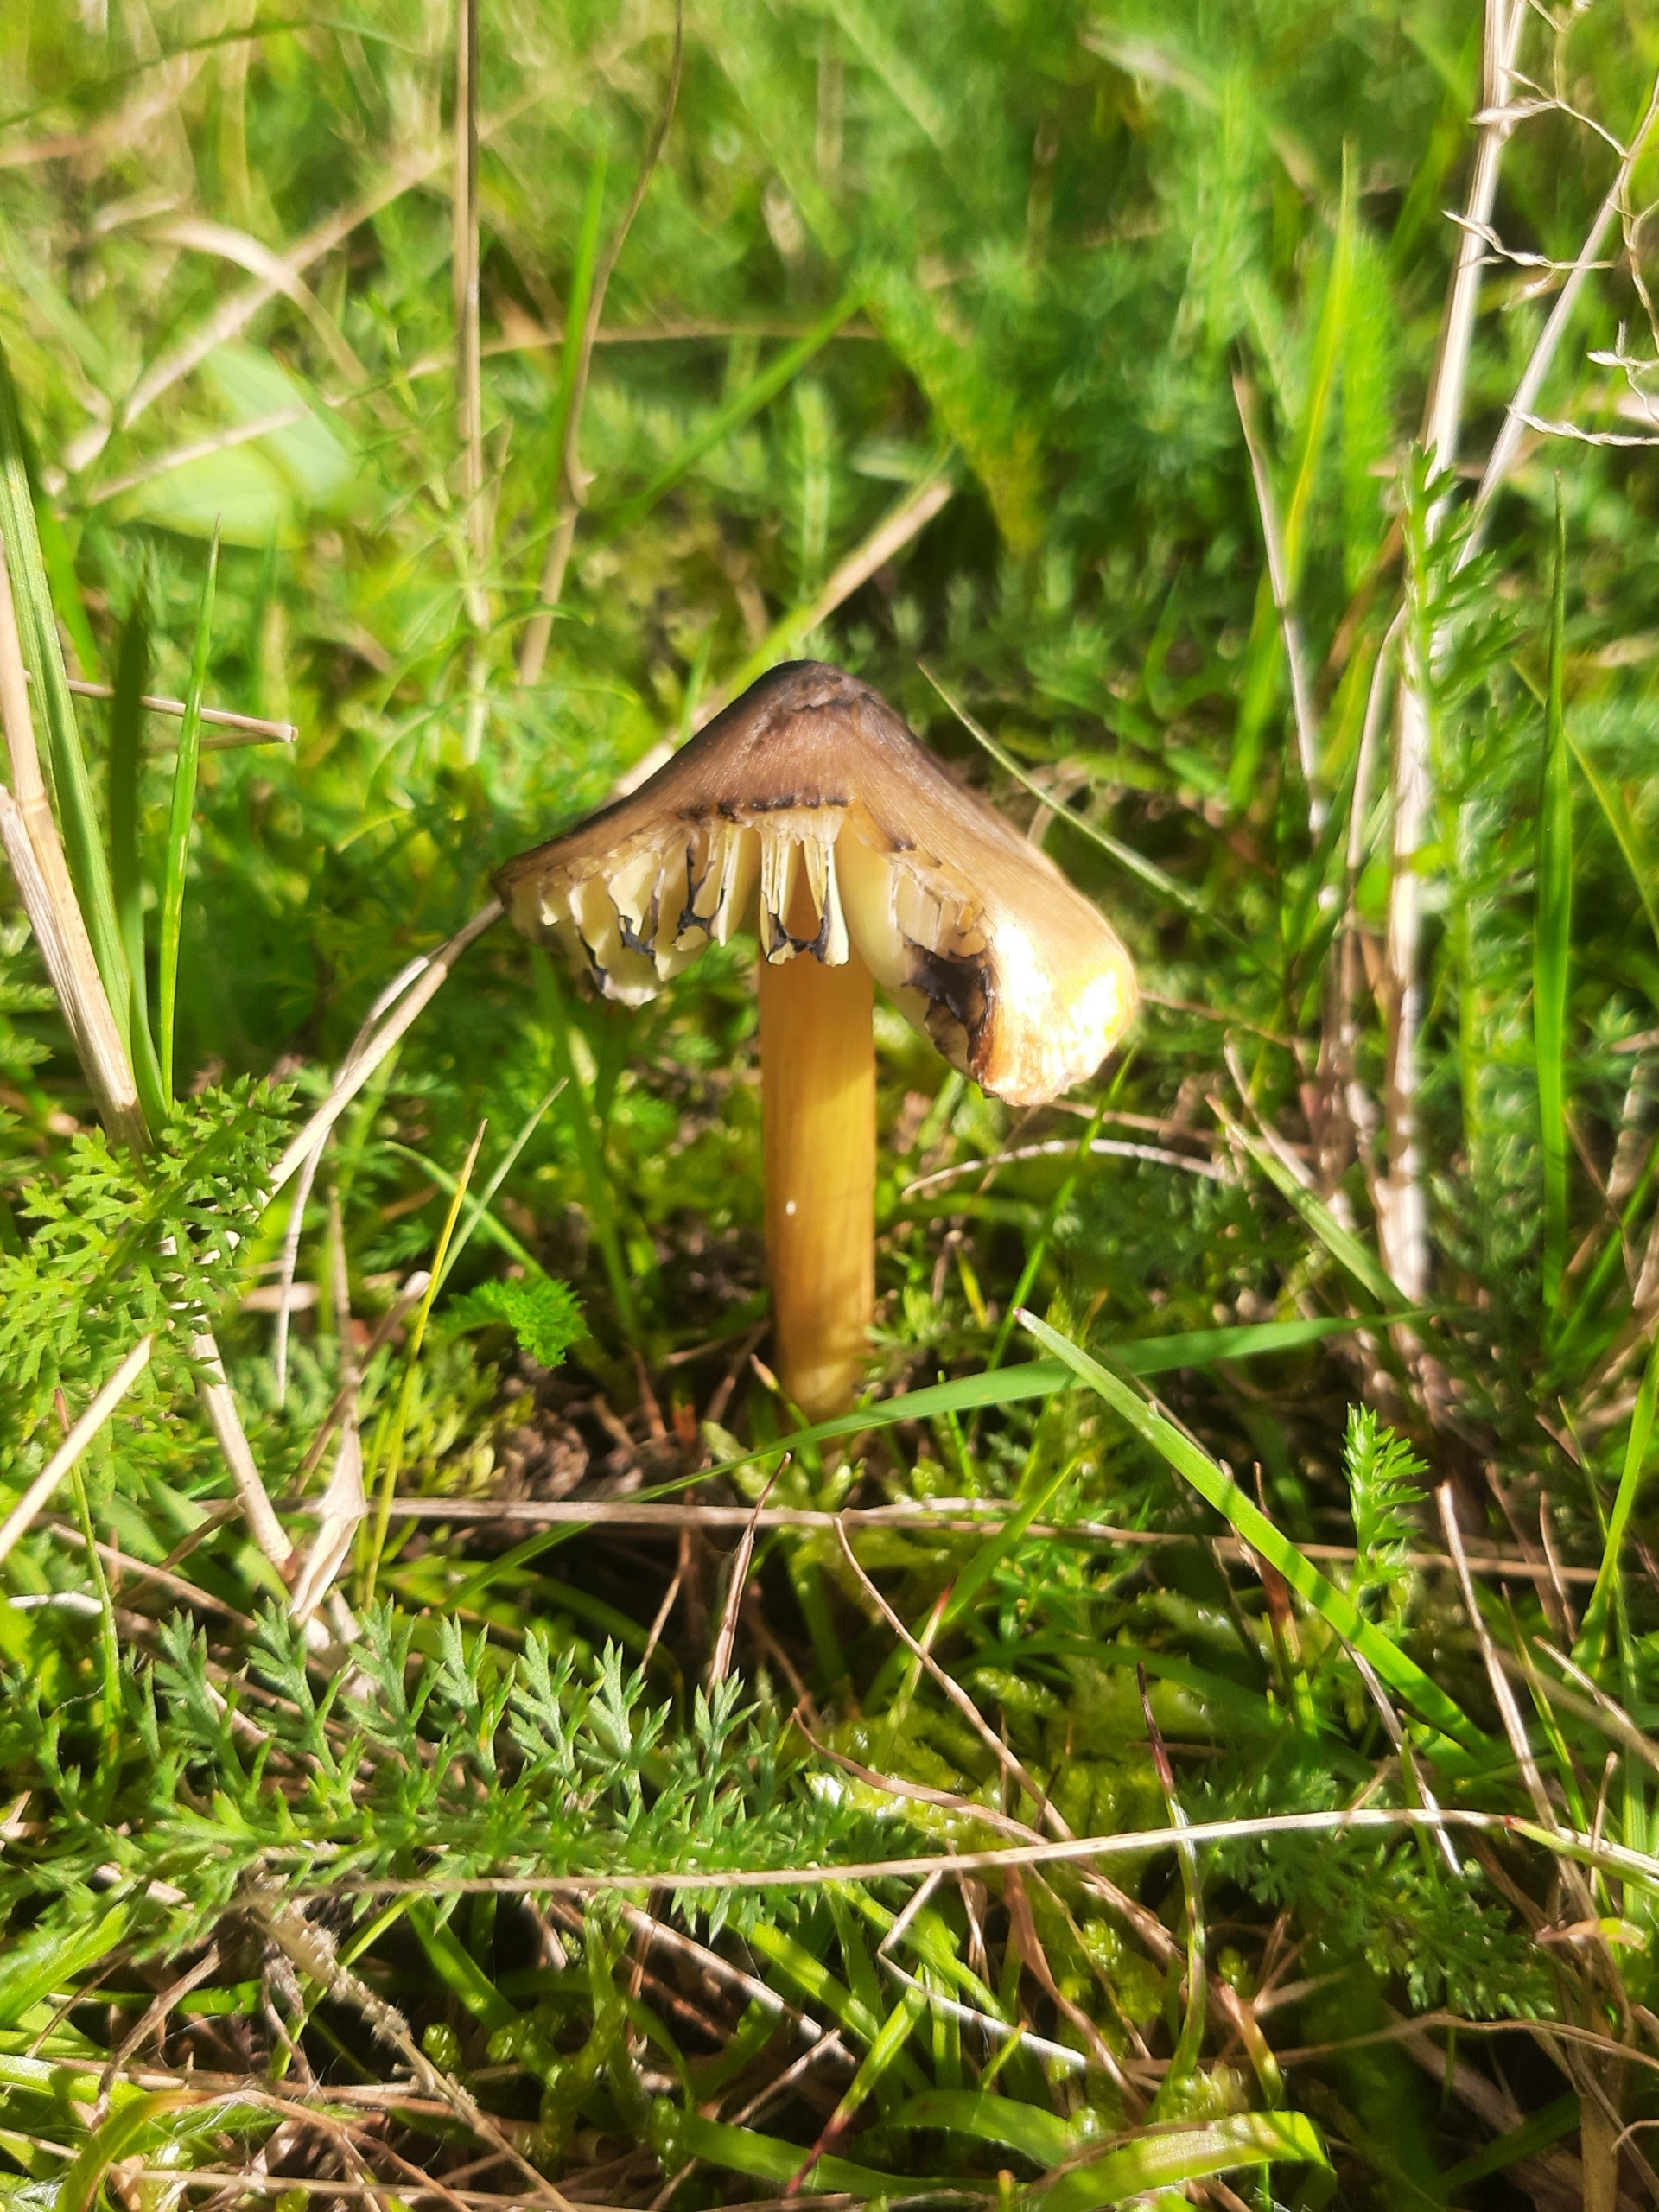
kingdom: Fungi
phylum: Basidiomycota
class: Agaricomycetes
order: Agaricales
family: Hygrophoraceae
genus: Hygrocybe
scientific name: Hygrocybe conica
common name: Kegle-vokshat
